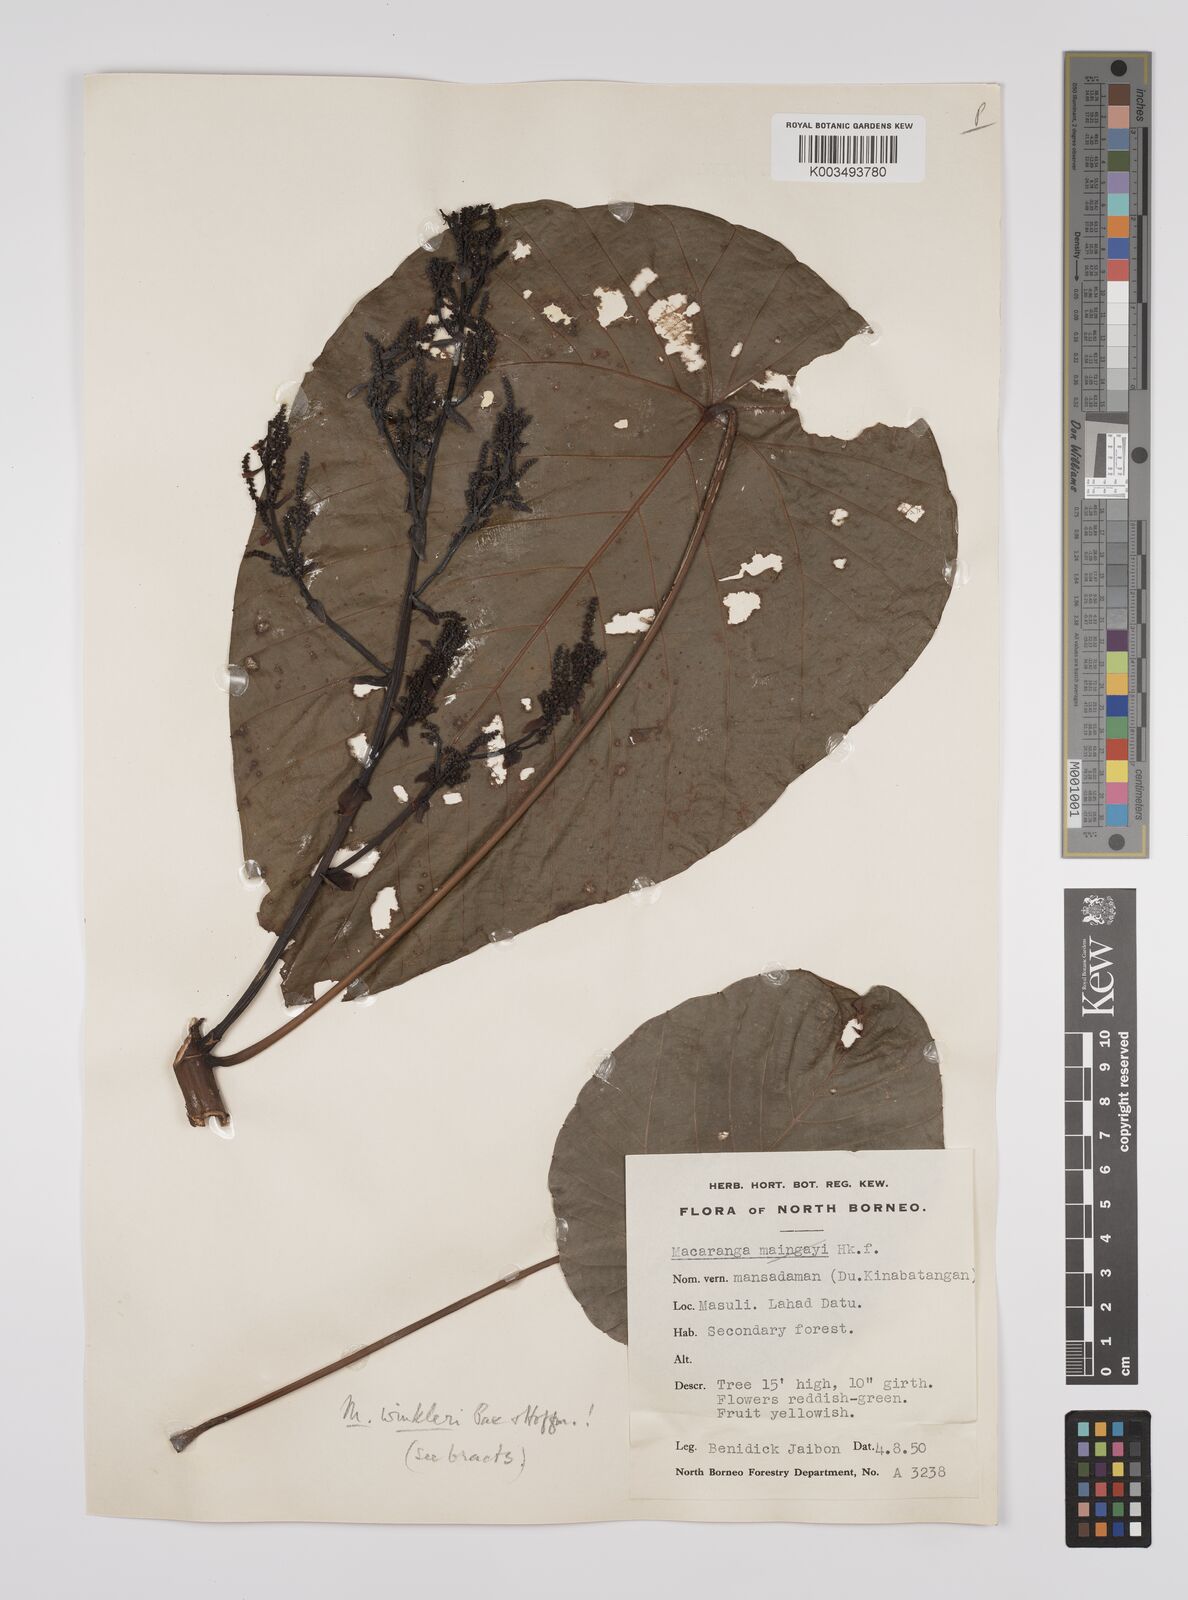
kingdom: Plantae
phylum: Tracheophyta
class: Magnoliopsida
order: Malpighiales
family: Euphorbiaceae
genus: Macaranga
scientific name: Macaranga winkleri
